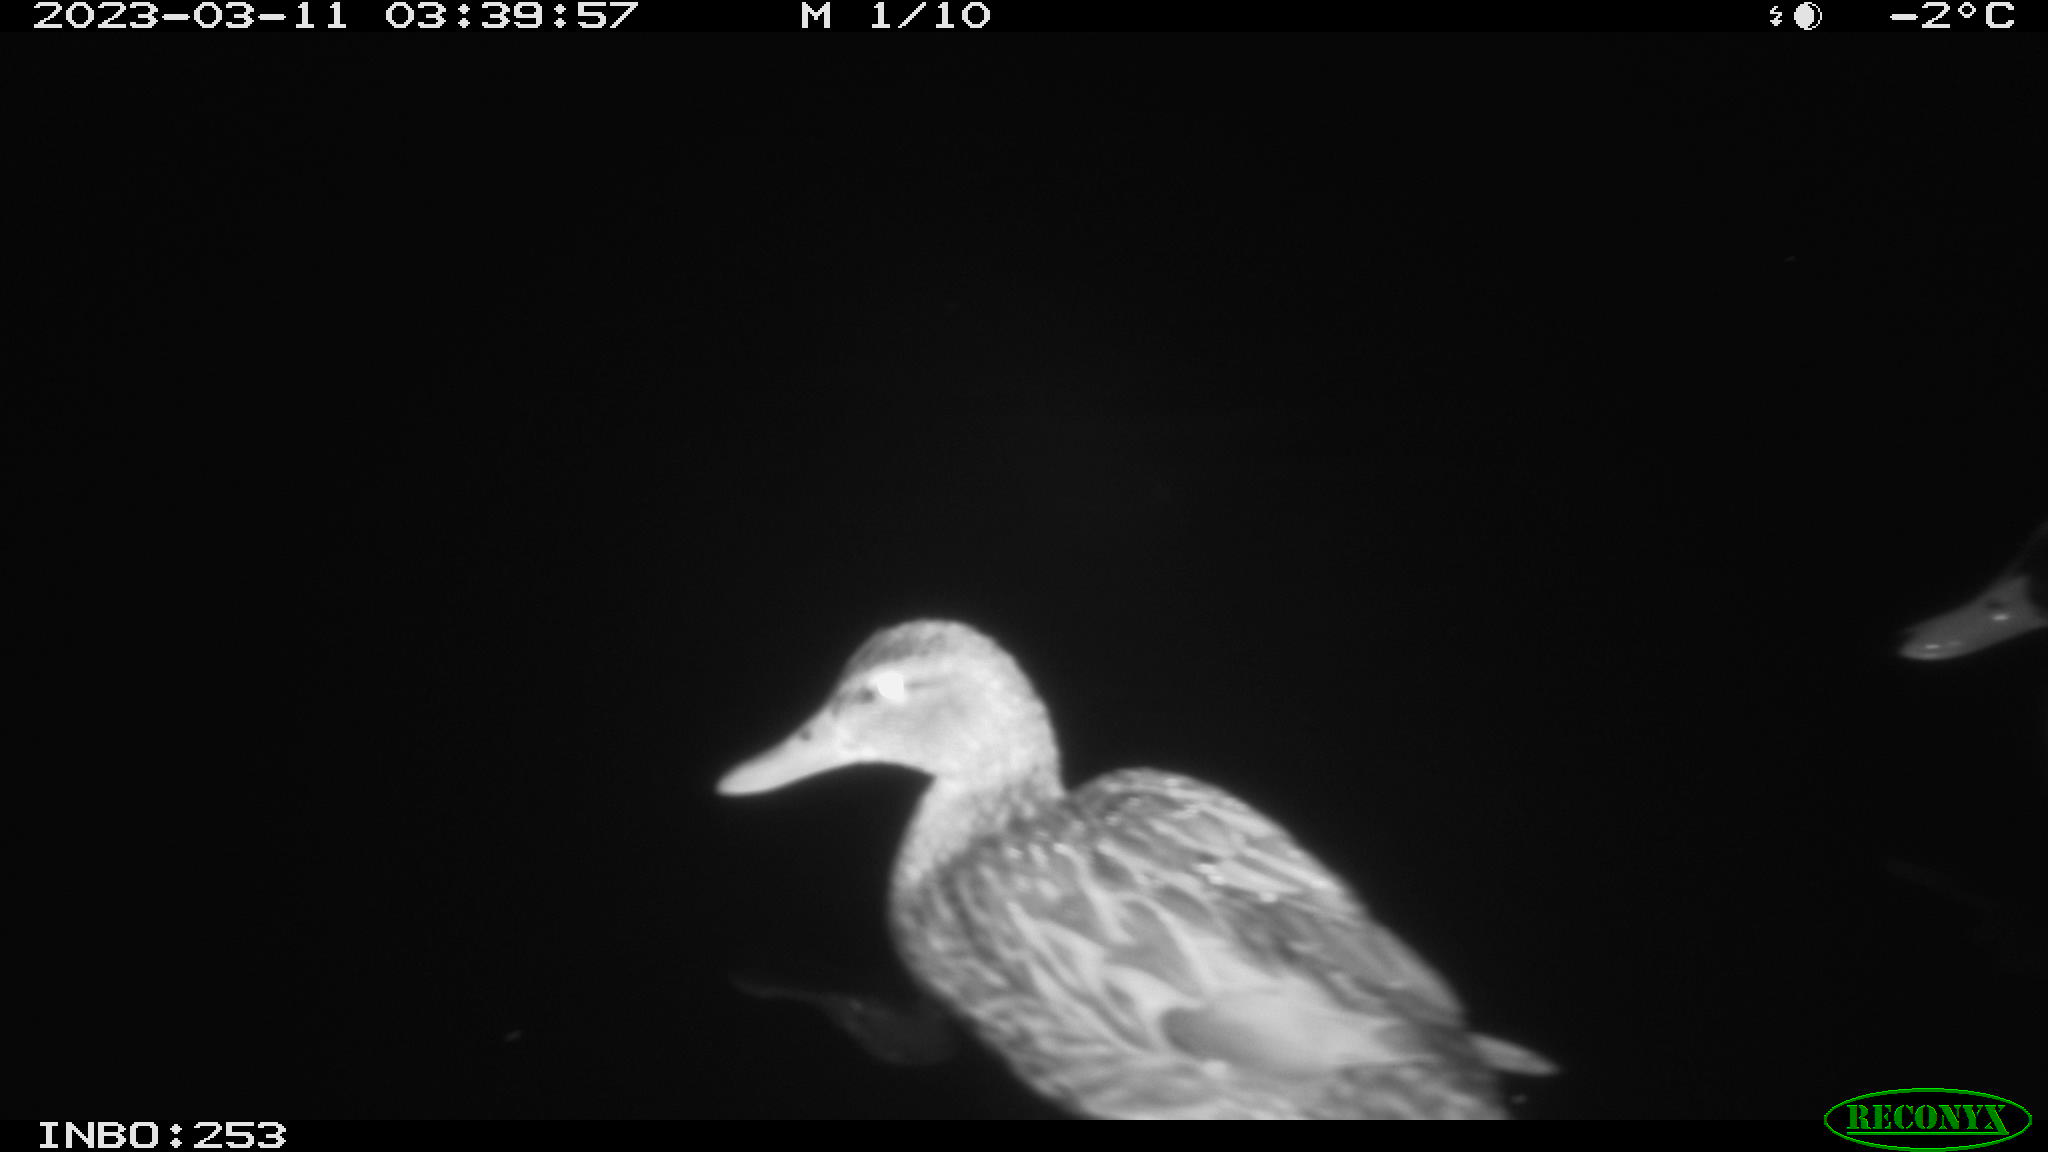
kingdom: Animalia
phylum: Chordata
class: Aves
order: Anseriformes
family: Anatidae
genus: Anas
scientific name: Anas
